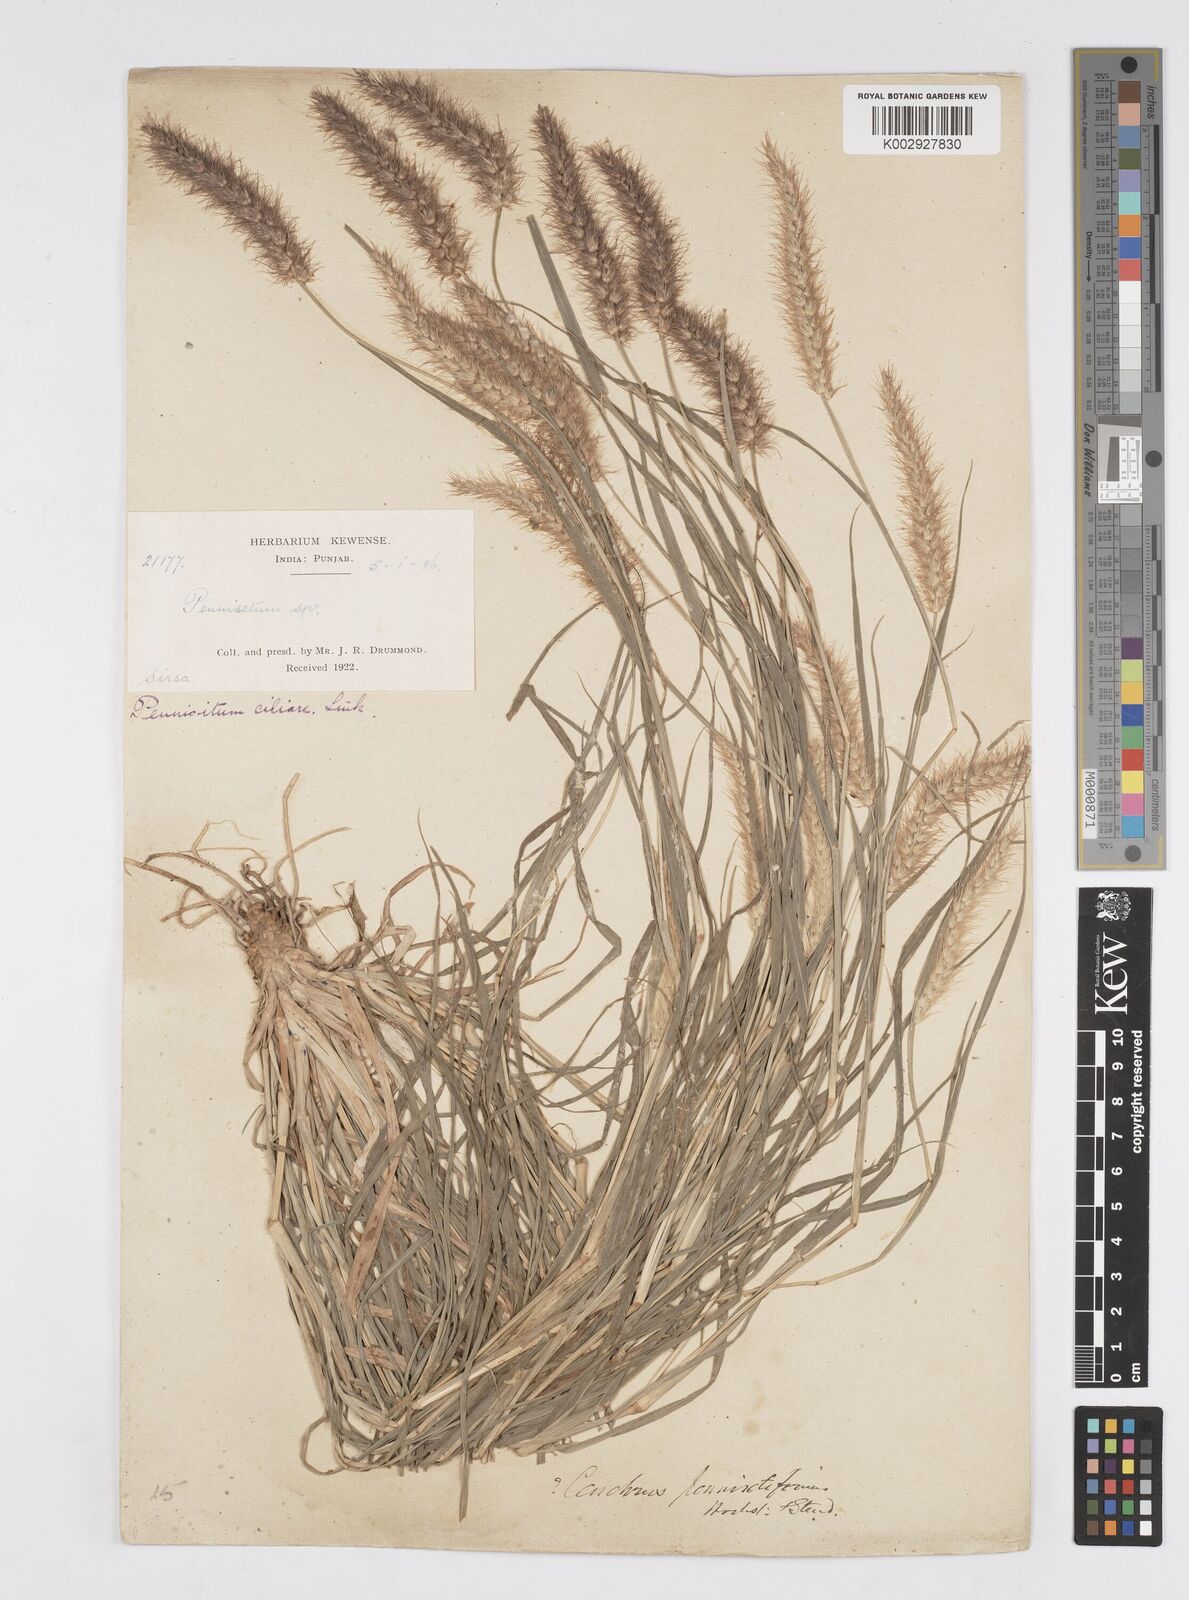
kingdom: Plantae
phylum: Tracheophyta
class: Liliopsida
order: Poales
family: Poaceae
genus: Cenchrus
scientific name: Cenchrus ciliaris
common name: Buffelgrass
